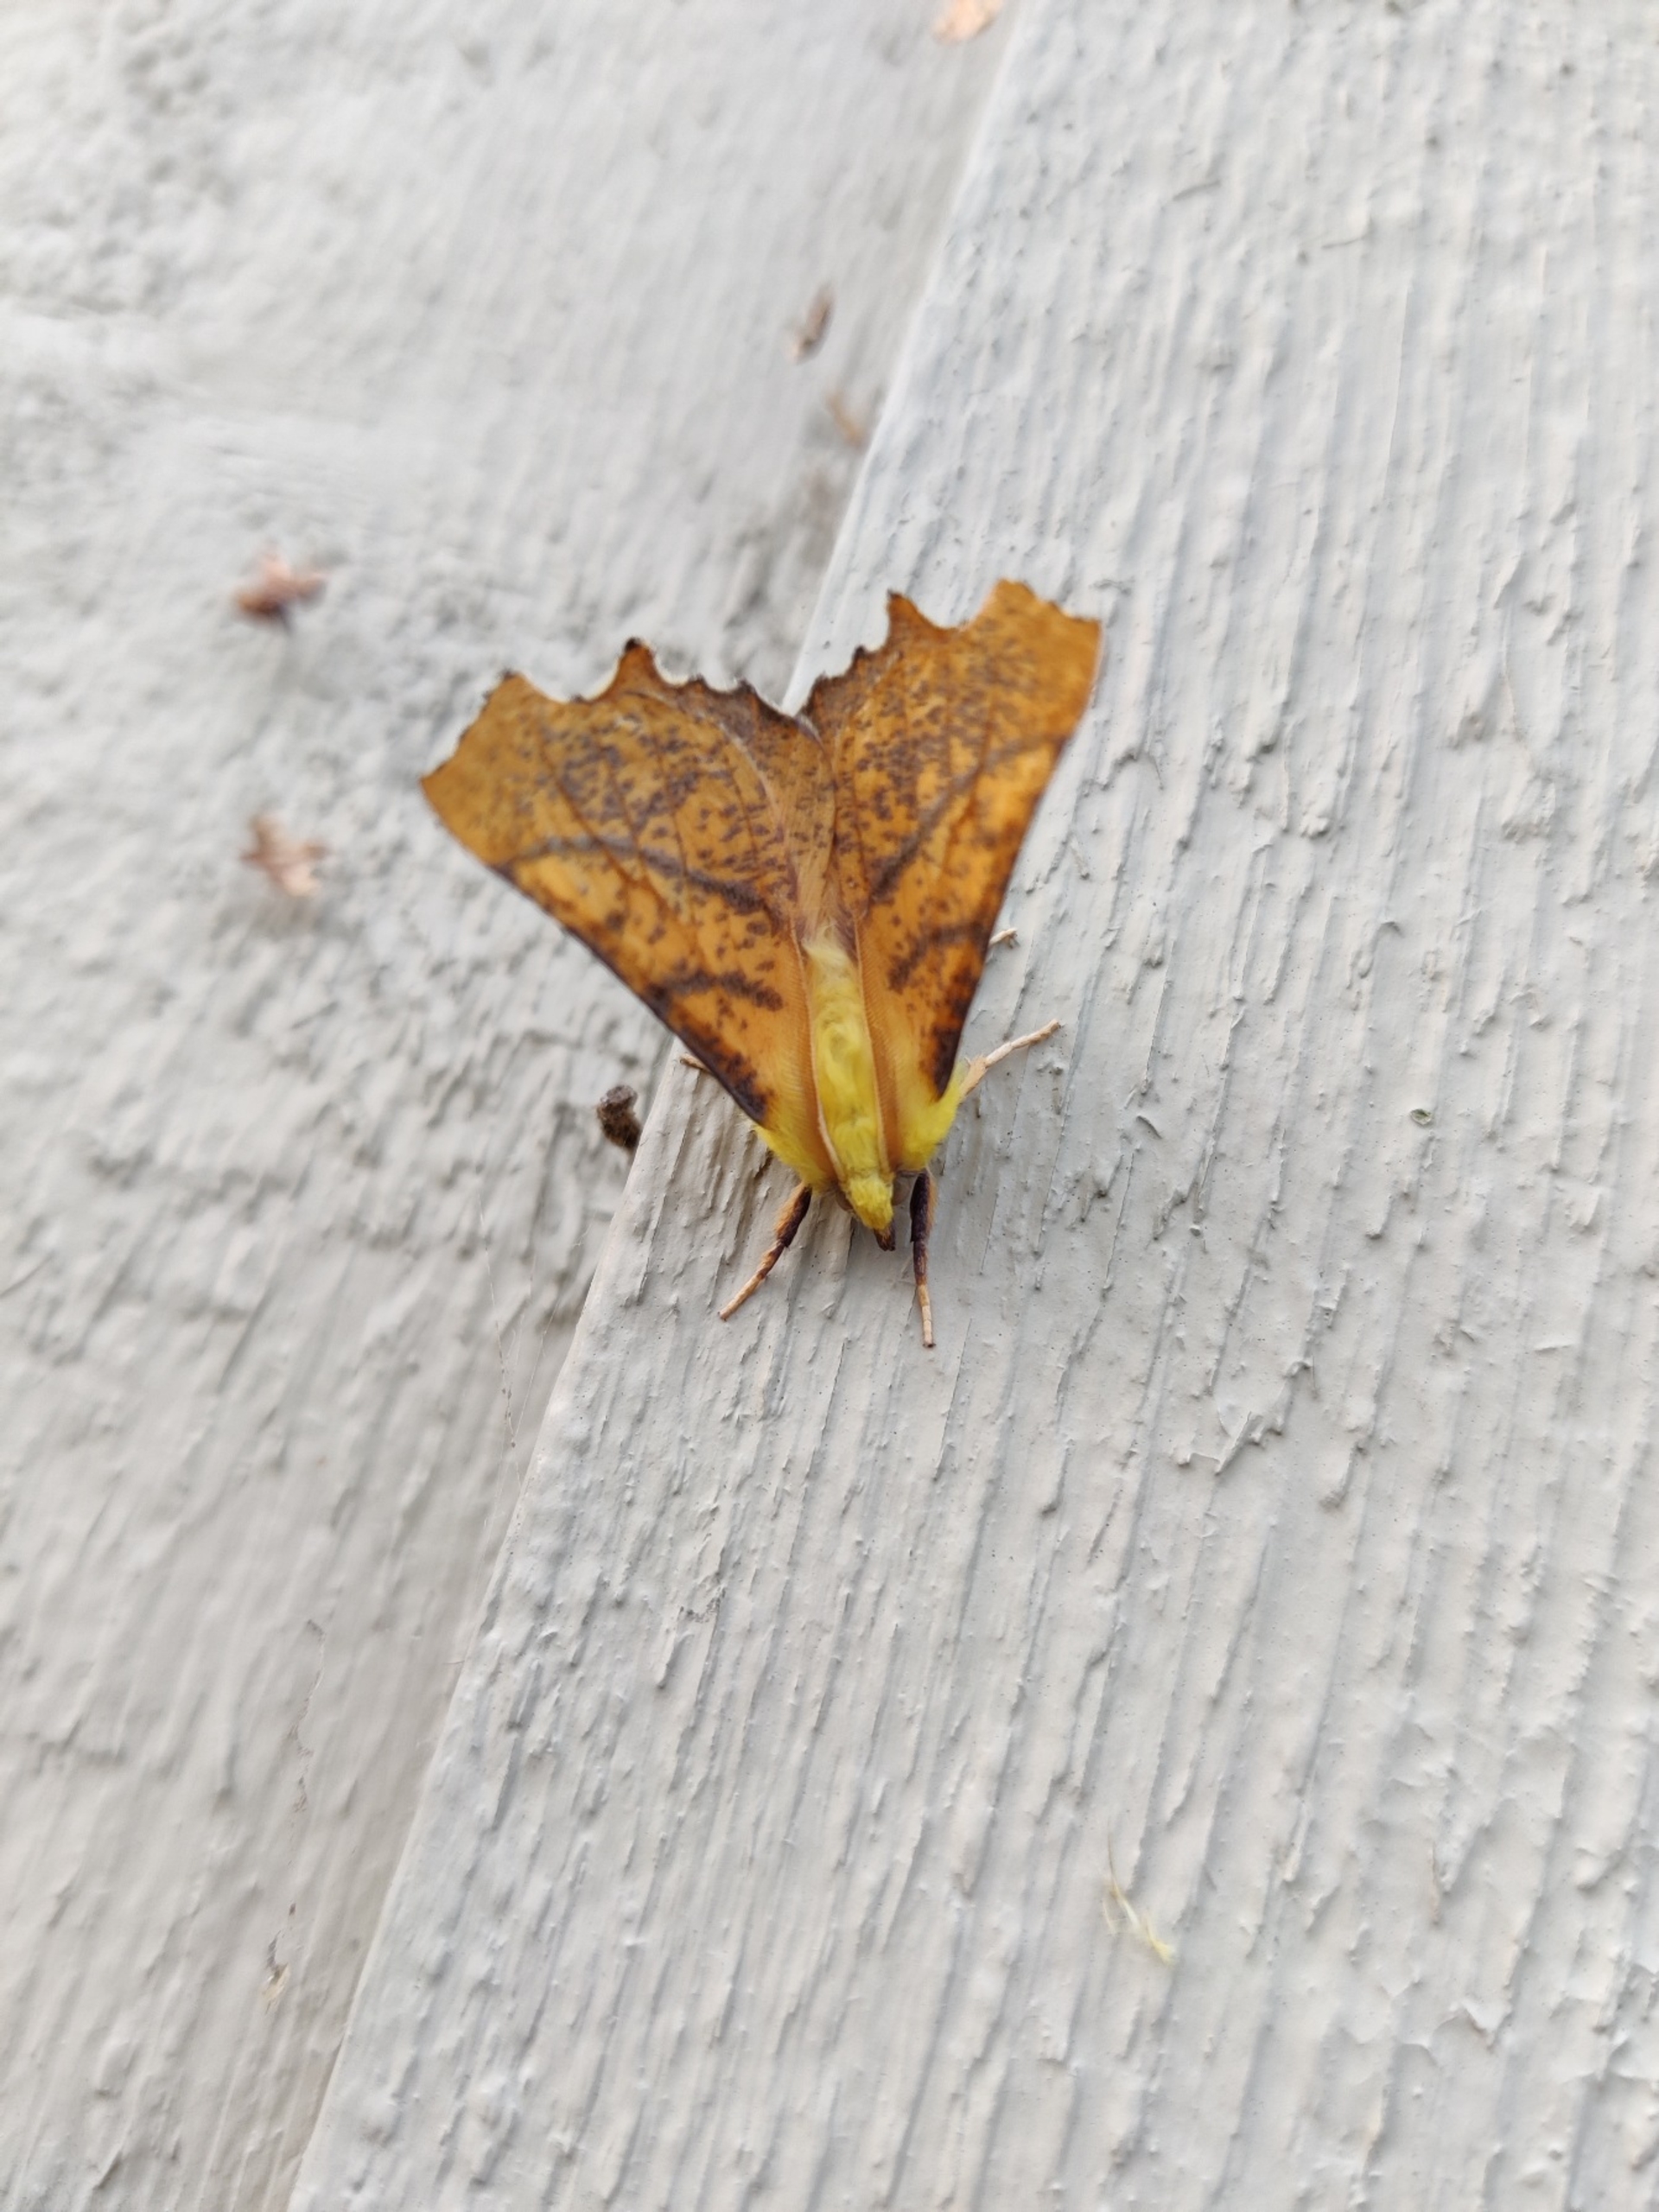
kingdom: Animalia
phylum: Arthropoda
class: Insecta
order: Lepidoptera
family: Geometridae
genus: Ennomos
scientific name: Ennomos alniaria
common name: Elle-tandmåler
